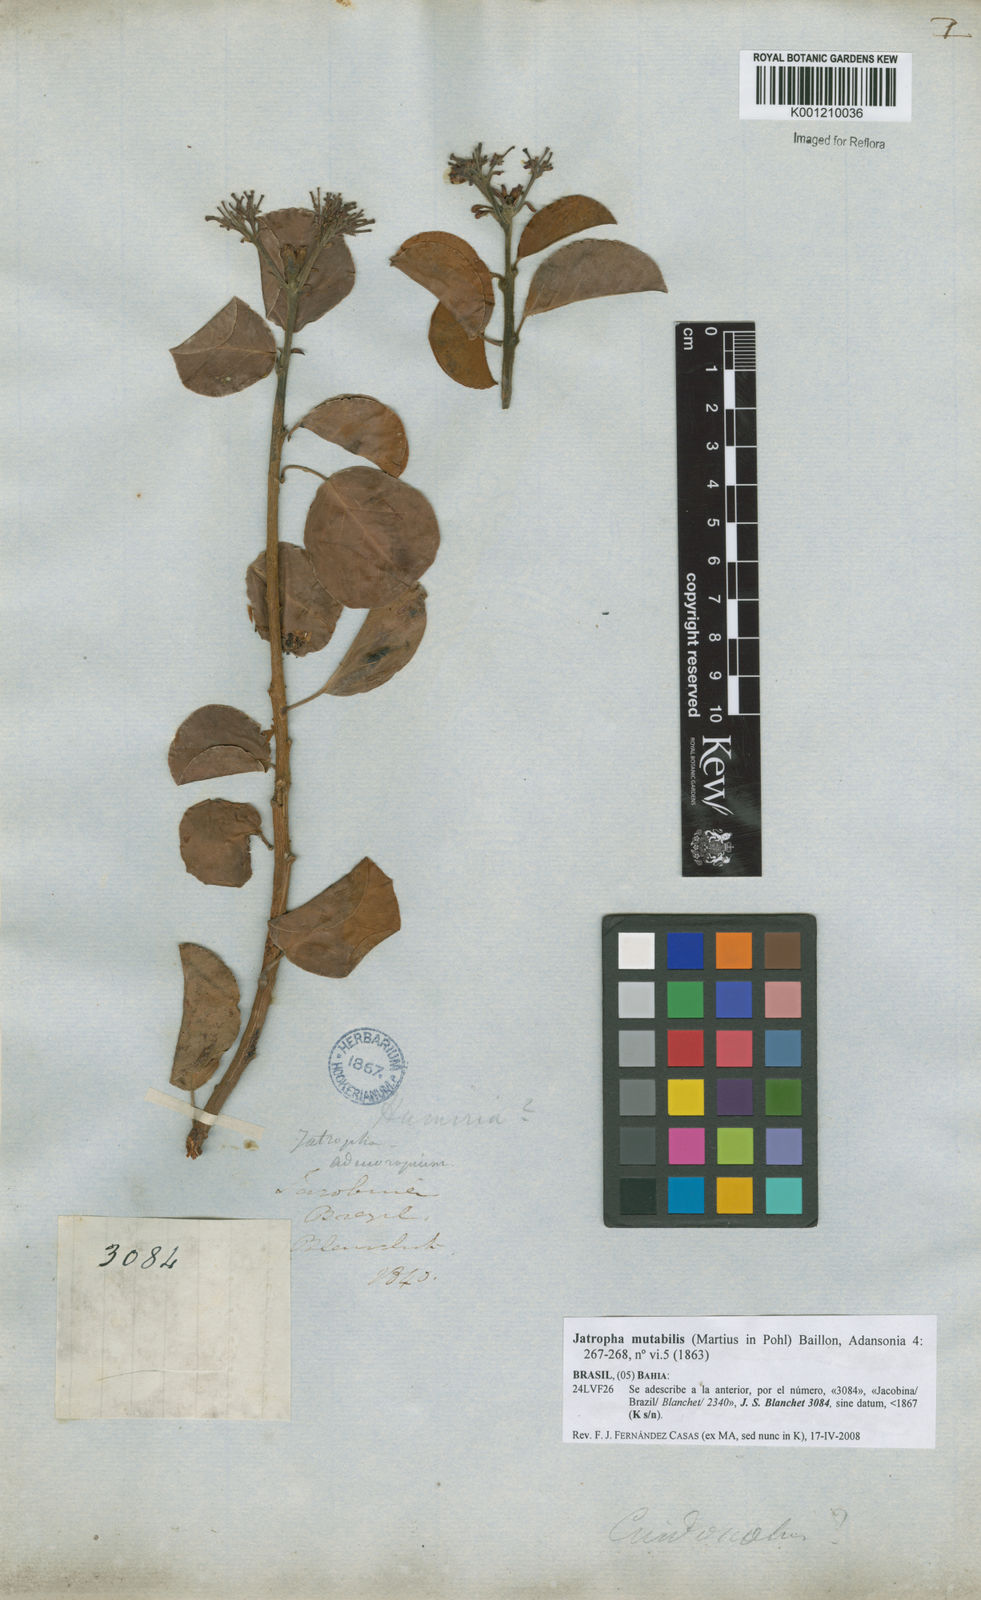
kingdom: Plantae
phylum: Tracheophyta
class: Magnoliopsida
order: Malpighiales
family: Euphorbiaceae
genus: Jatropha
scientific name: Jatropha mutabilis
